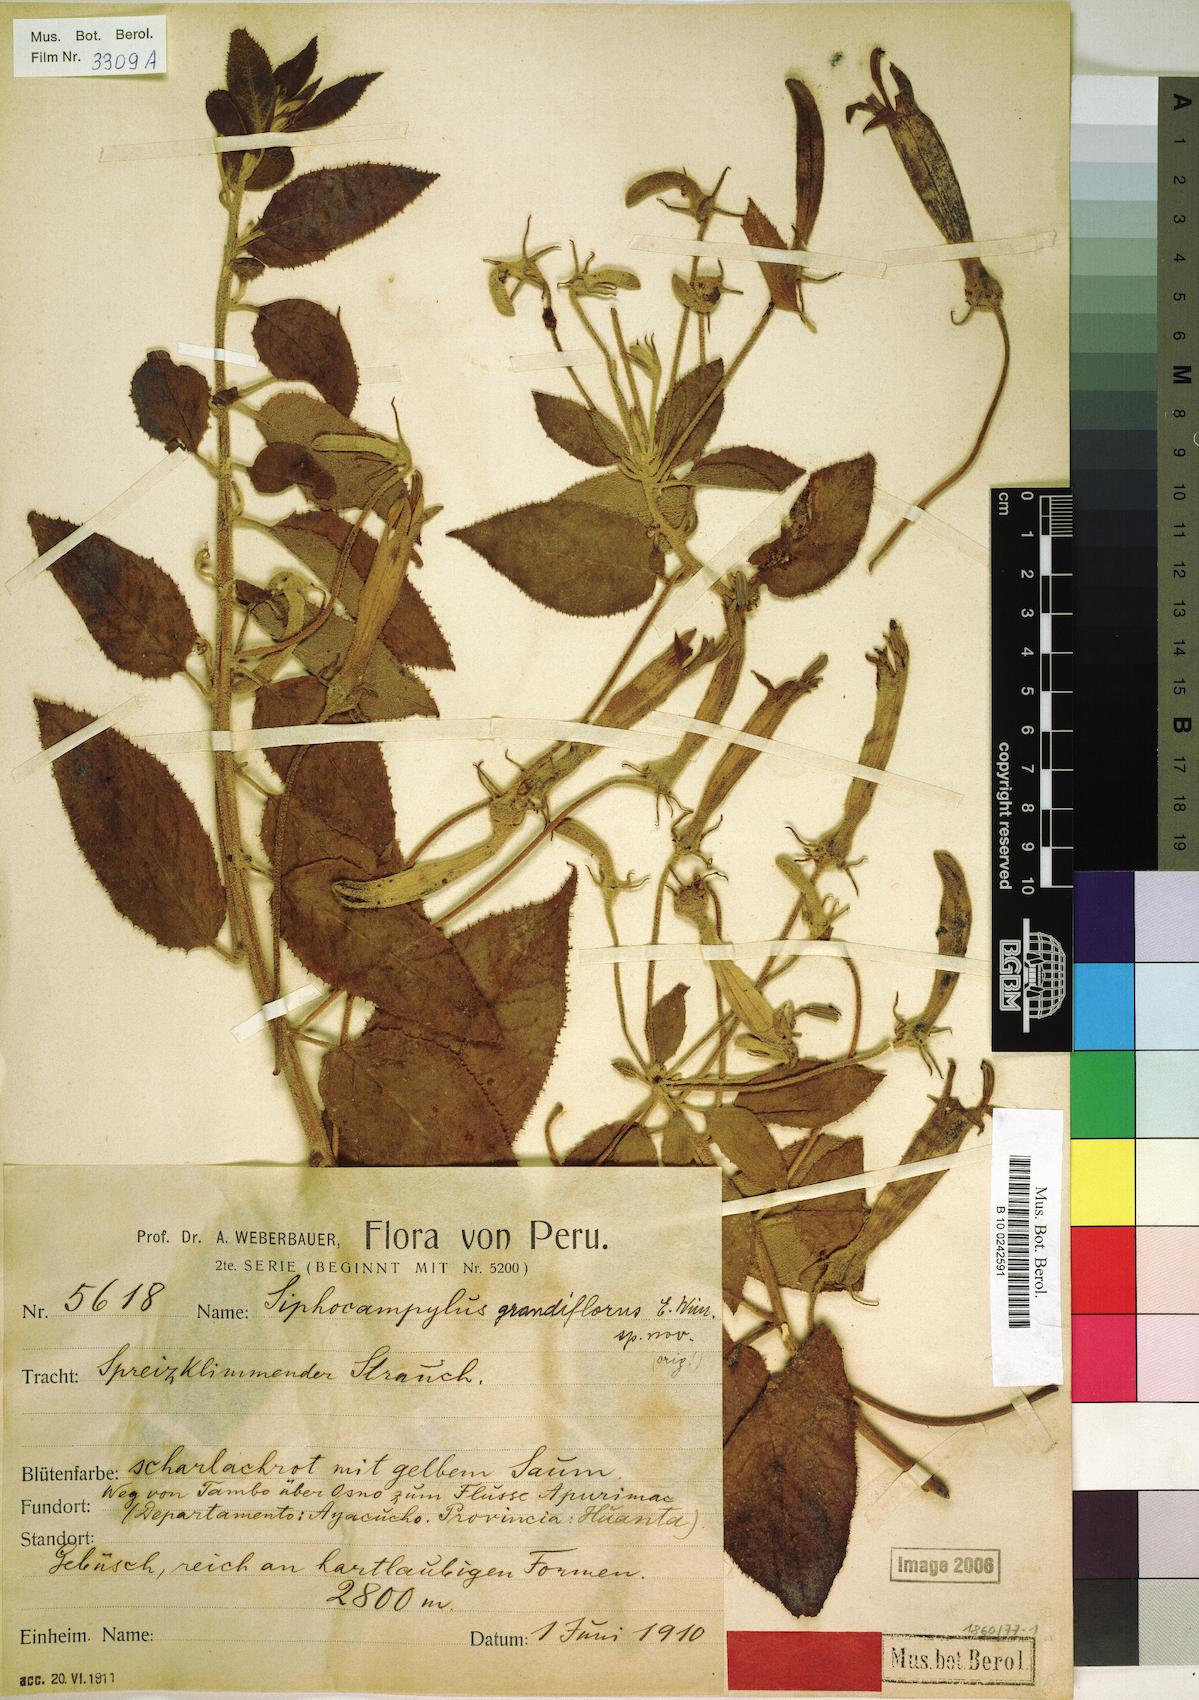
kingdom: Plantae
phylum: Tracheophyta
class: Magnoliopsida
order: Asterales
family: Campanulaceae
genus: Siphocampylus
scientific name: Siphocampylus grandiflorus
